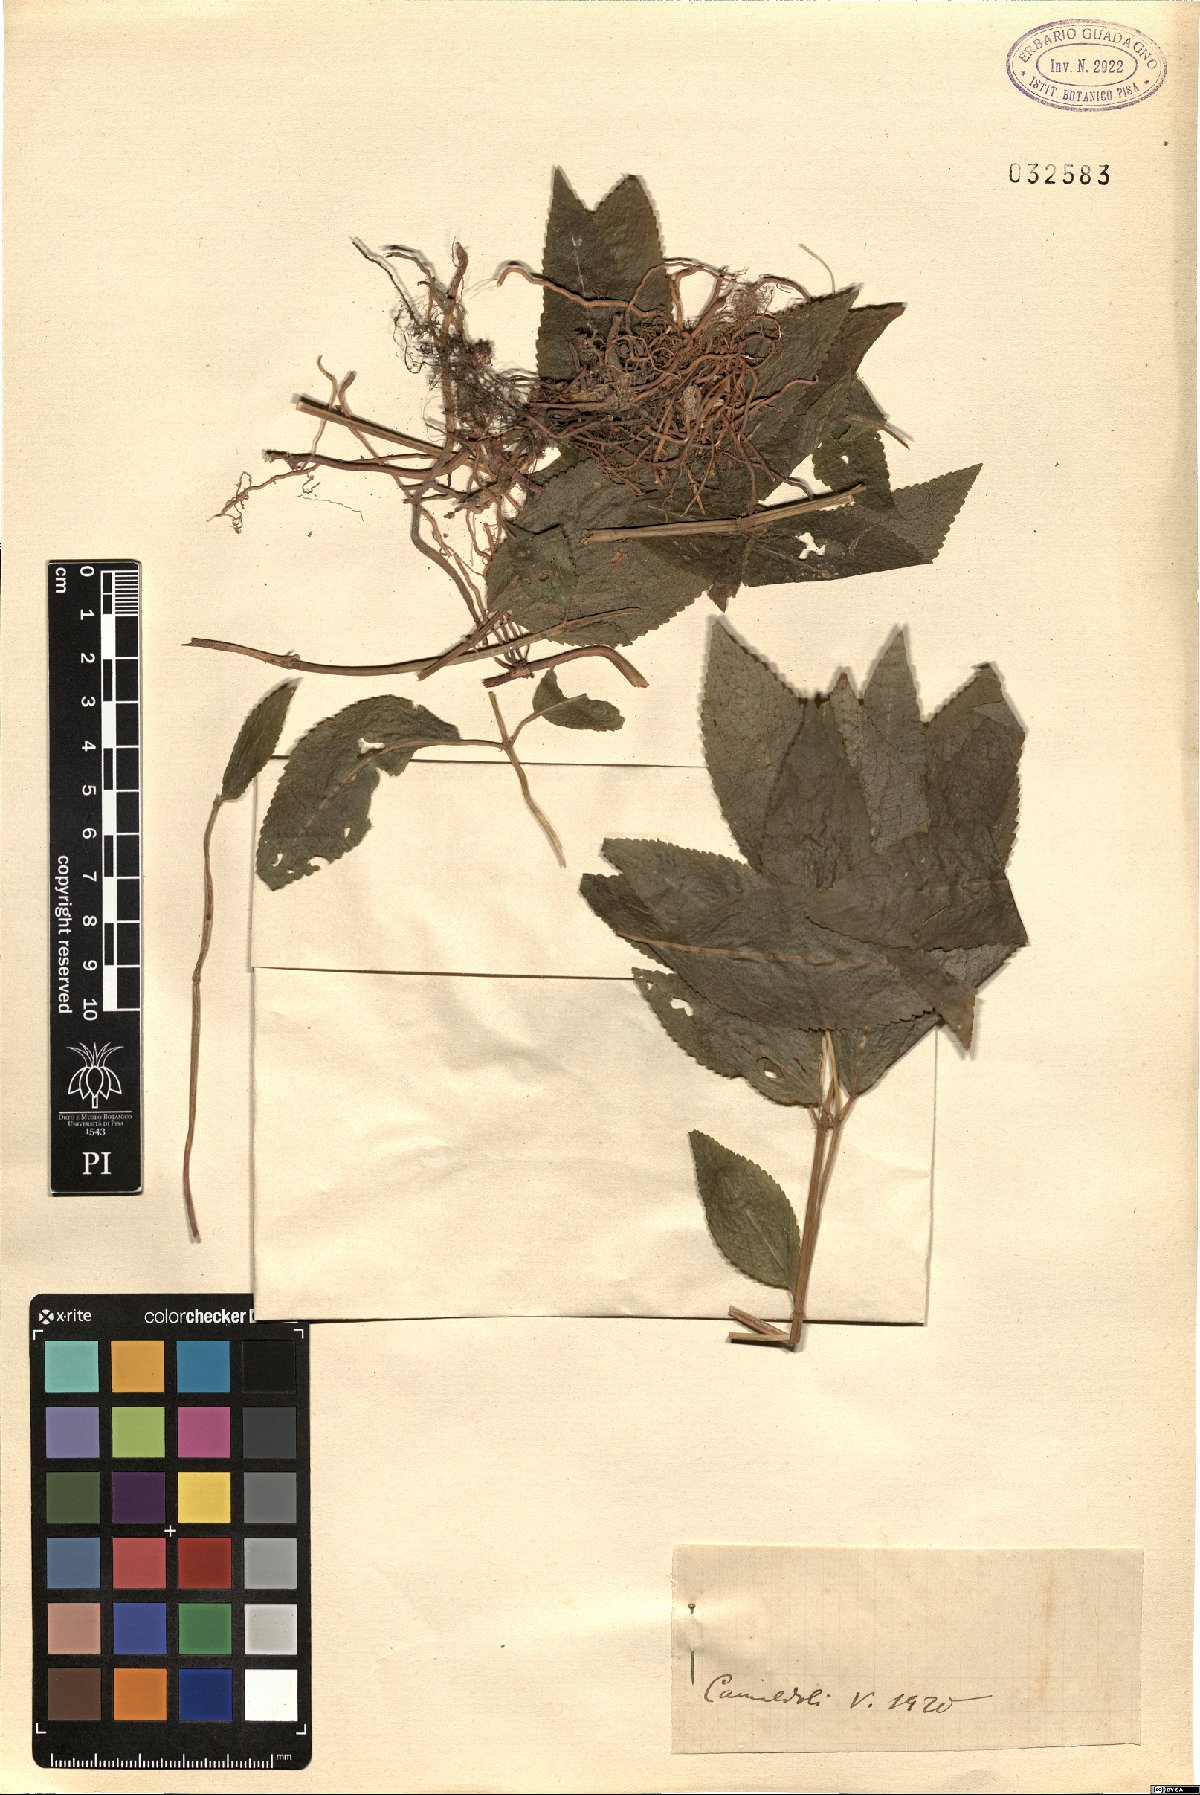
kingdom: Plantae
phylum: Tracheophyta
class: Magnoliopsida
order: Malpighiales
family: Euphorbiaceae
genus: Adenocline
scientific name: Adenocline
